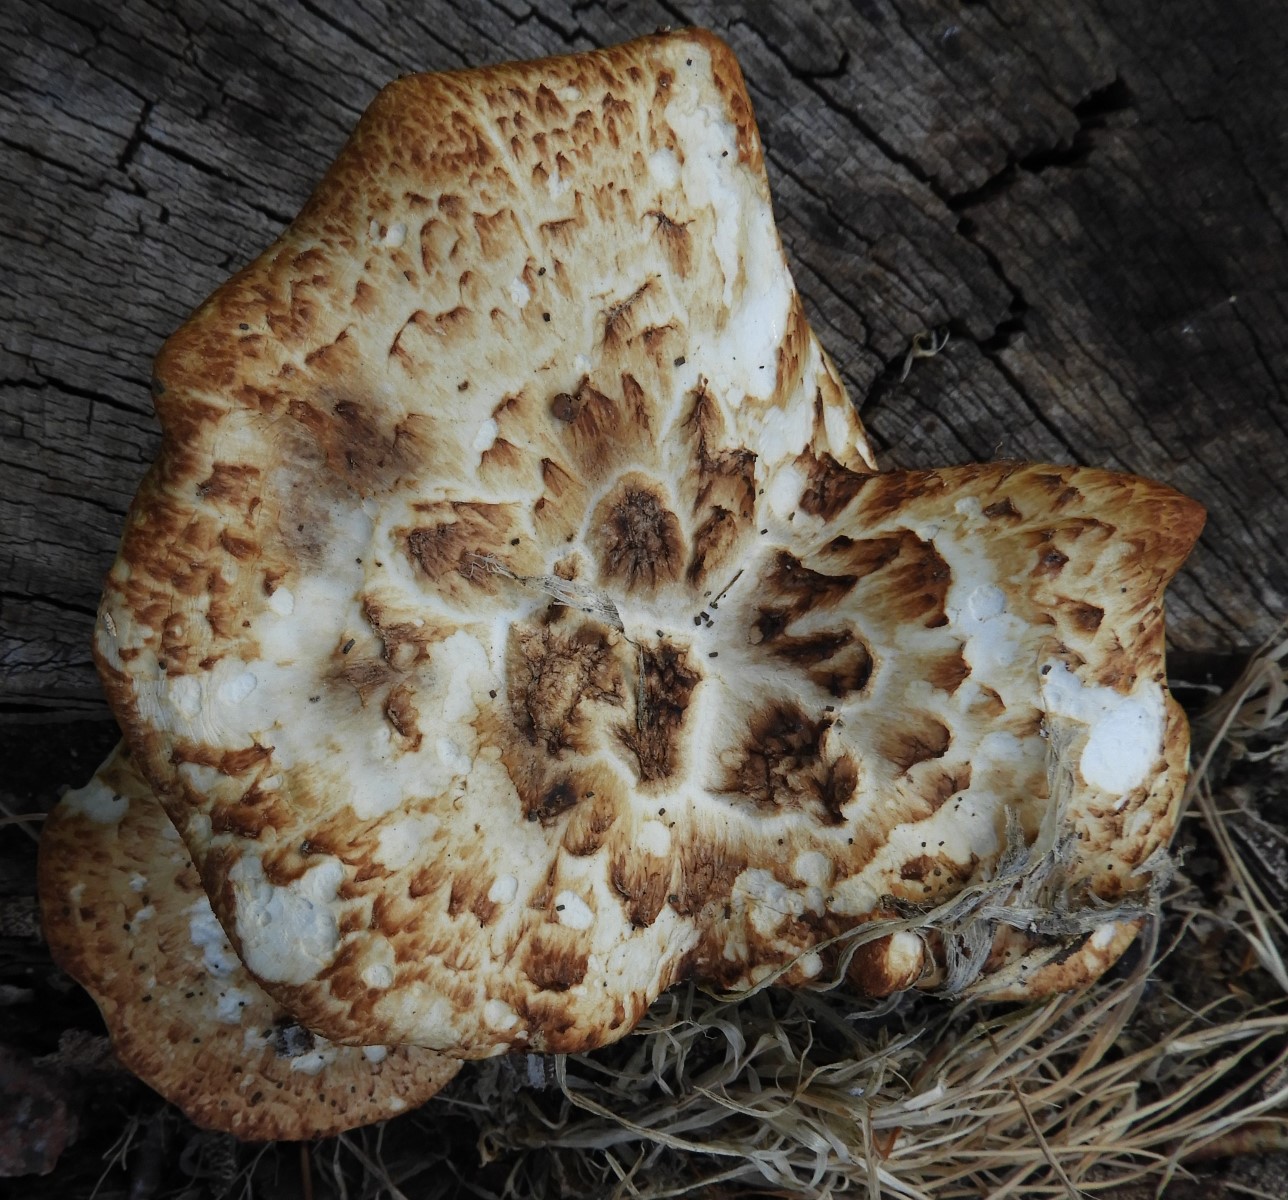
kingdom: Fungi
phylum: Basidiomycota
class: Agaricomycetes
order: Polyporales
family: Polyporaceae
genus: Cerioporus
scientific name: Cerioporus squamosus
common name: skællet stilkporesvamp
